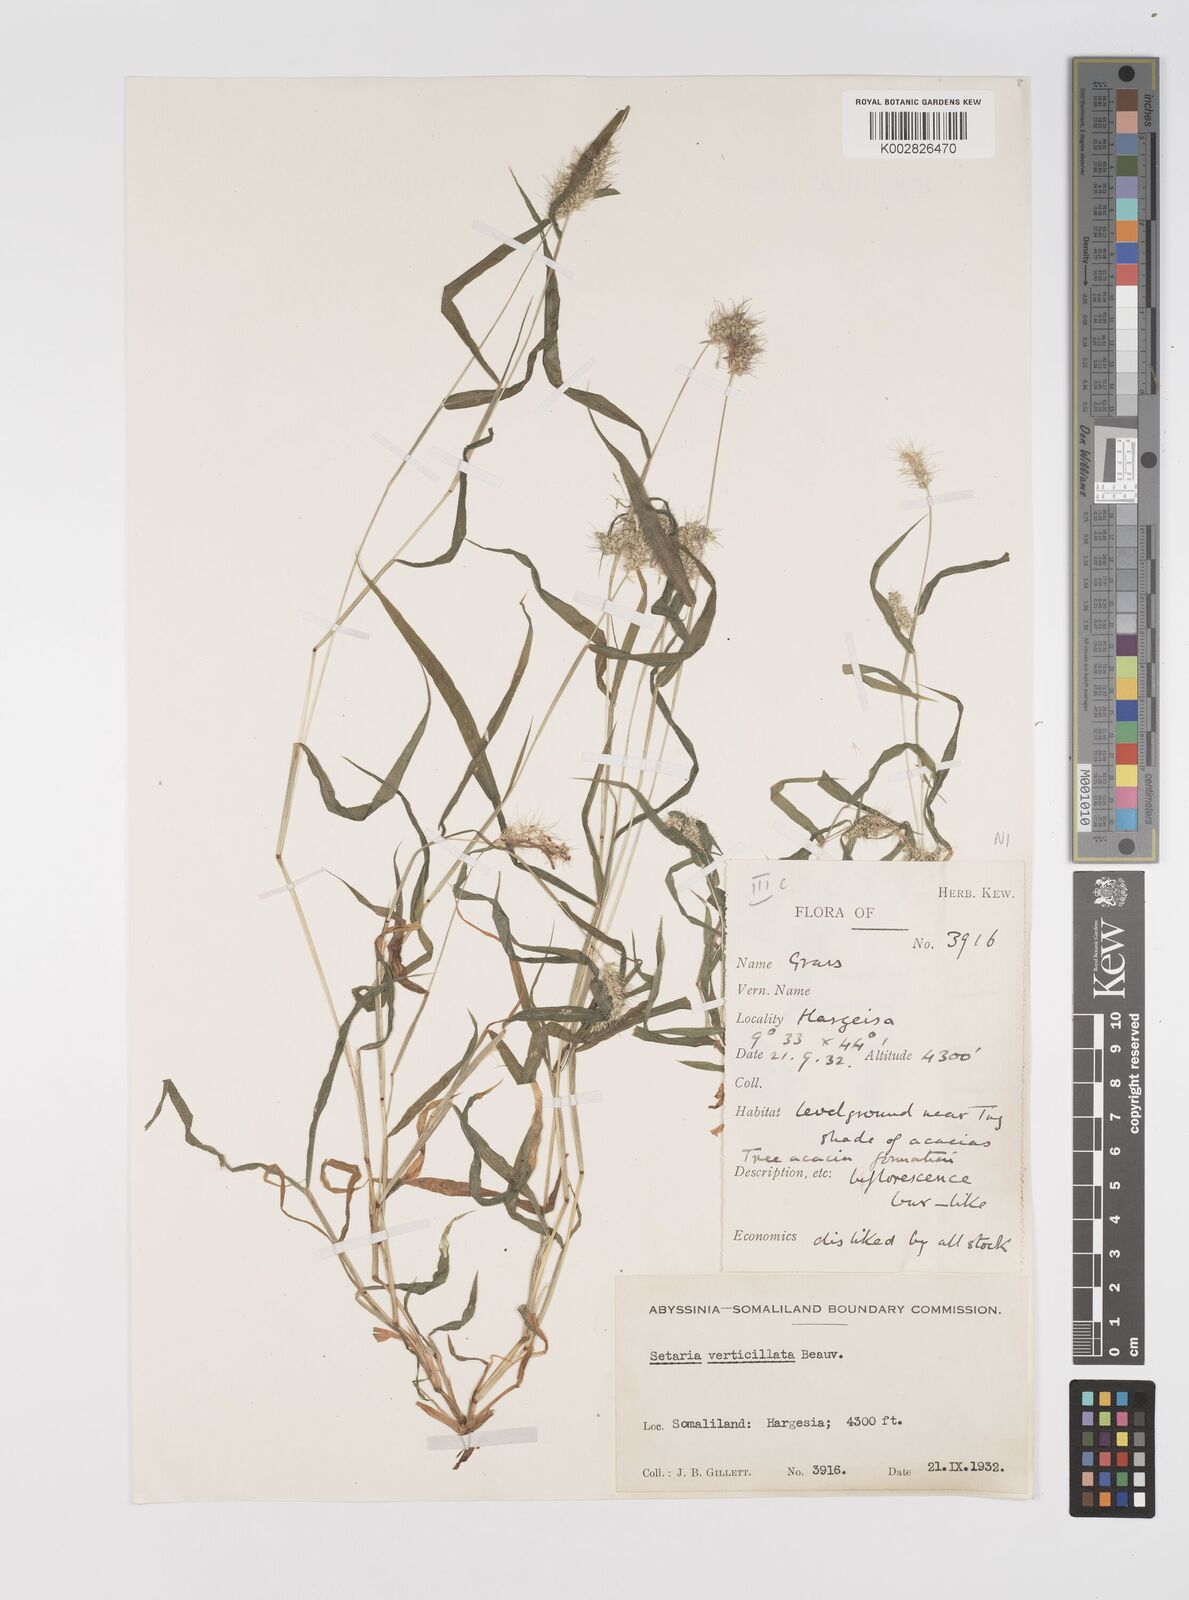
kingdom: Plantae
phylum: Tracheophyta
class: Liliopsida
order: Poales
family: Poaceae
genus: Setaria
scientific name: Setaria verticillata
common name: Hooked bristlegrass
